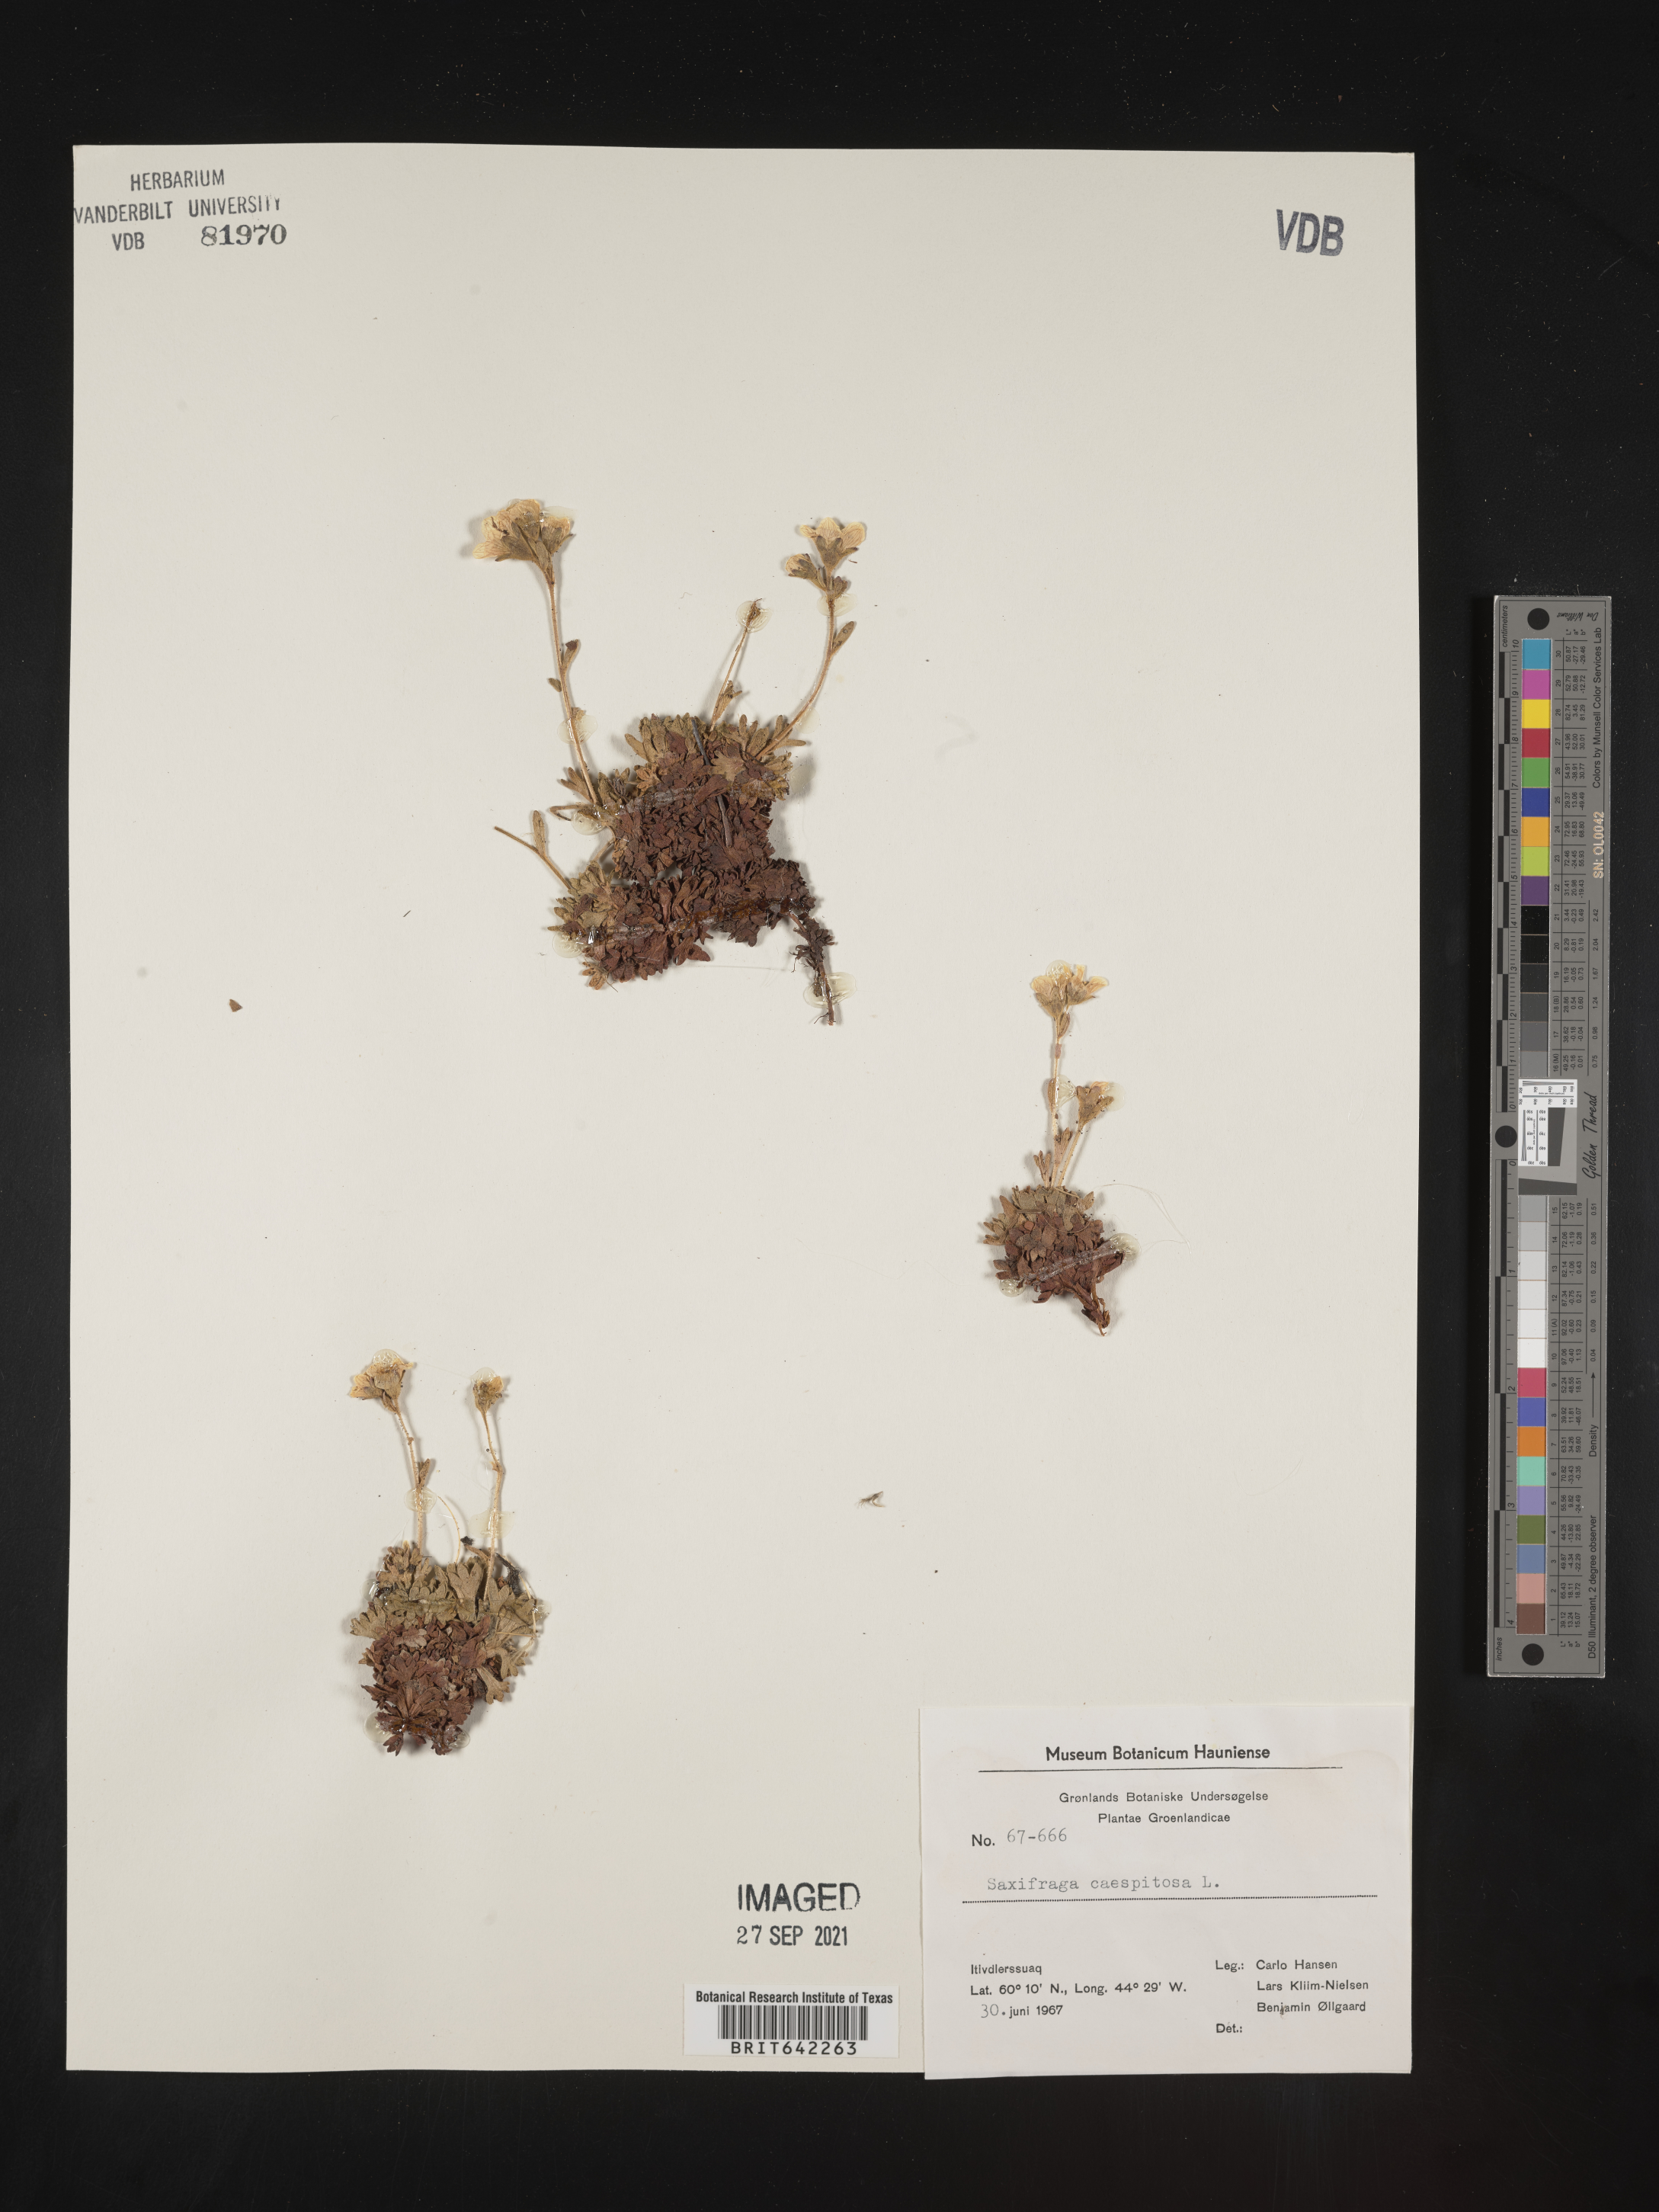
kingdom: Plantae
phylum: Tracheophyta
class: Magnoliopsida
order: Saxifragales
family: Saxifragaceae
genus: Saxifraga
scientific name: Saxifraga
